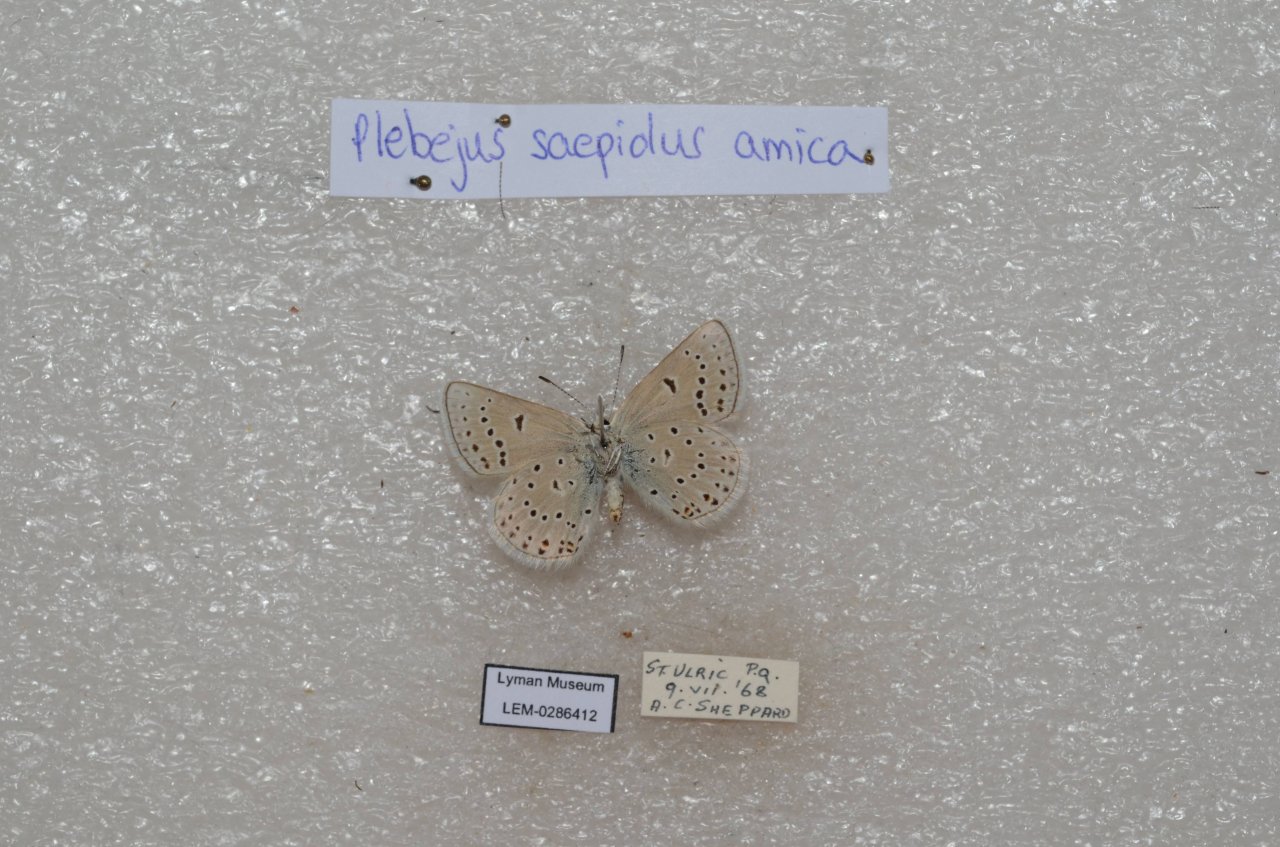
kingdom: Animalia
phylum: Arthropoda
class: Insecta
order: Lepidoptera
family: Lycaenidae
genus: Plebejus
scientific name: Plebejus saepiolus
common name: Greenish Blue
